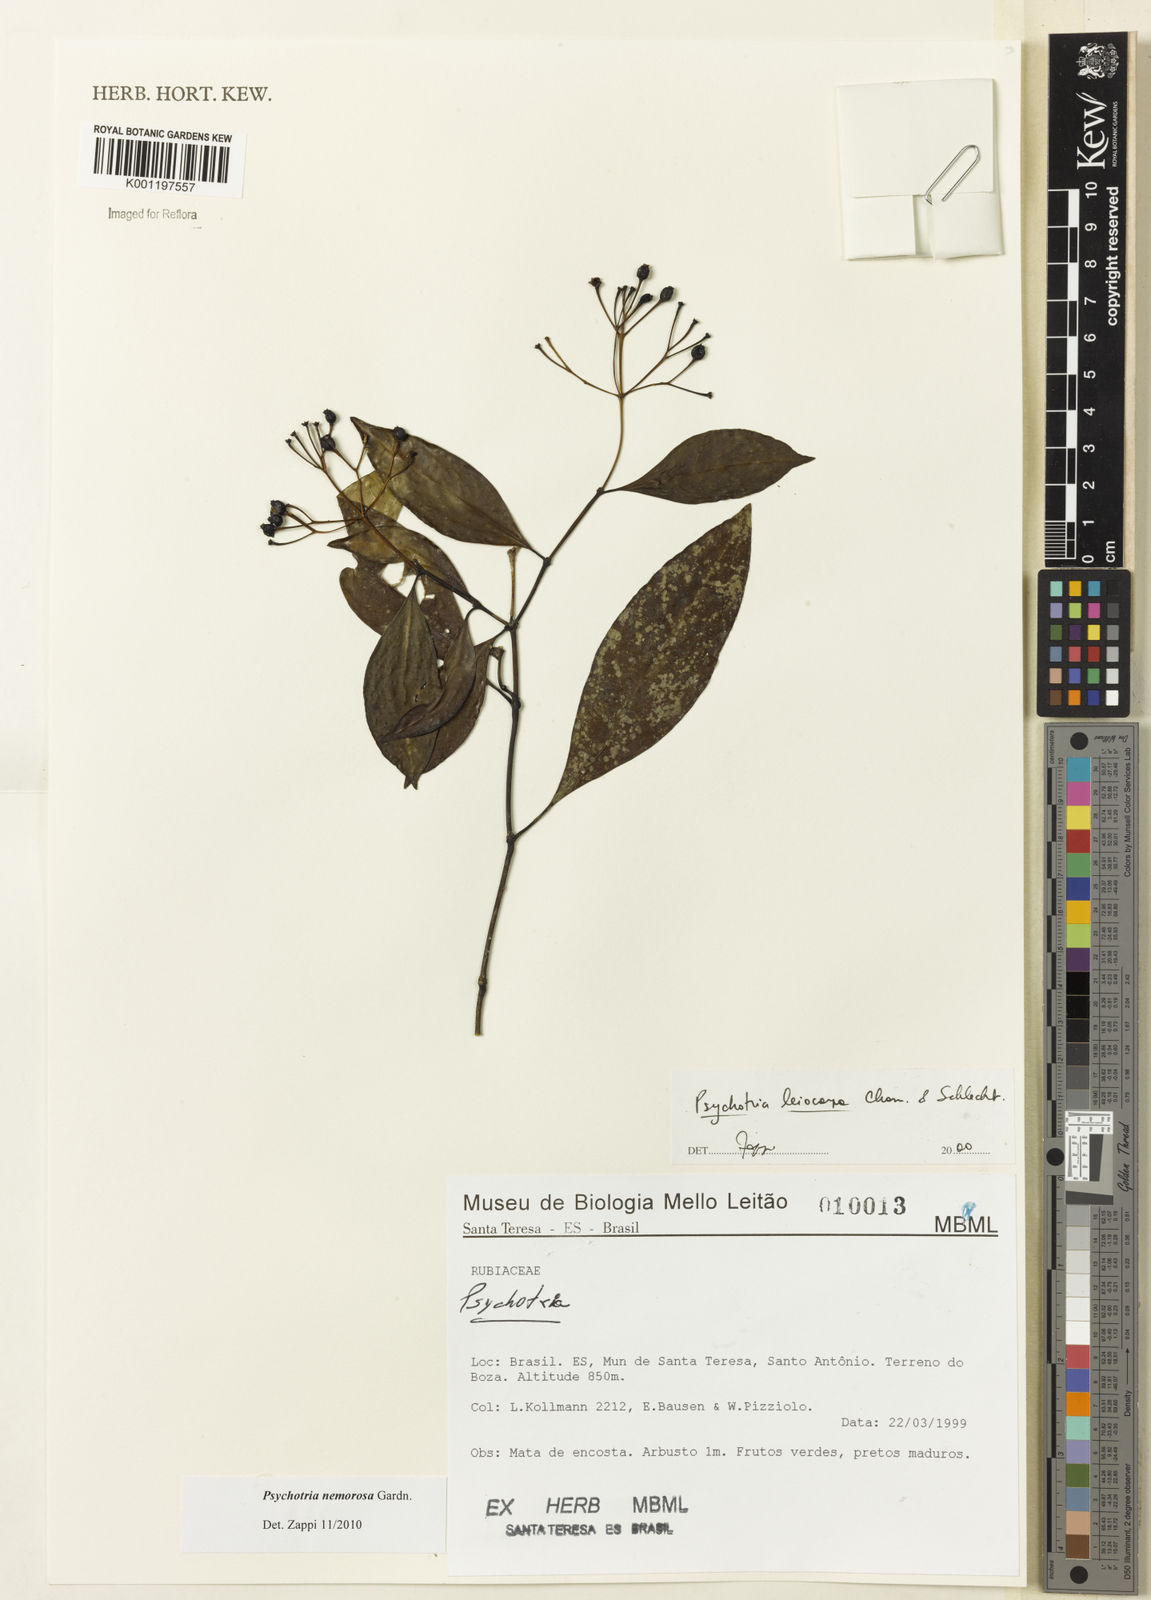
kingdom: Plantae
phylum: Tracheophyta
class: Magnoliopsida
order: Gentianales
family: Rubiaceae
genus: Psychotria
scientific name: Psychotria nemorosa
